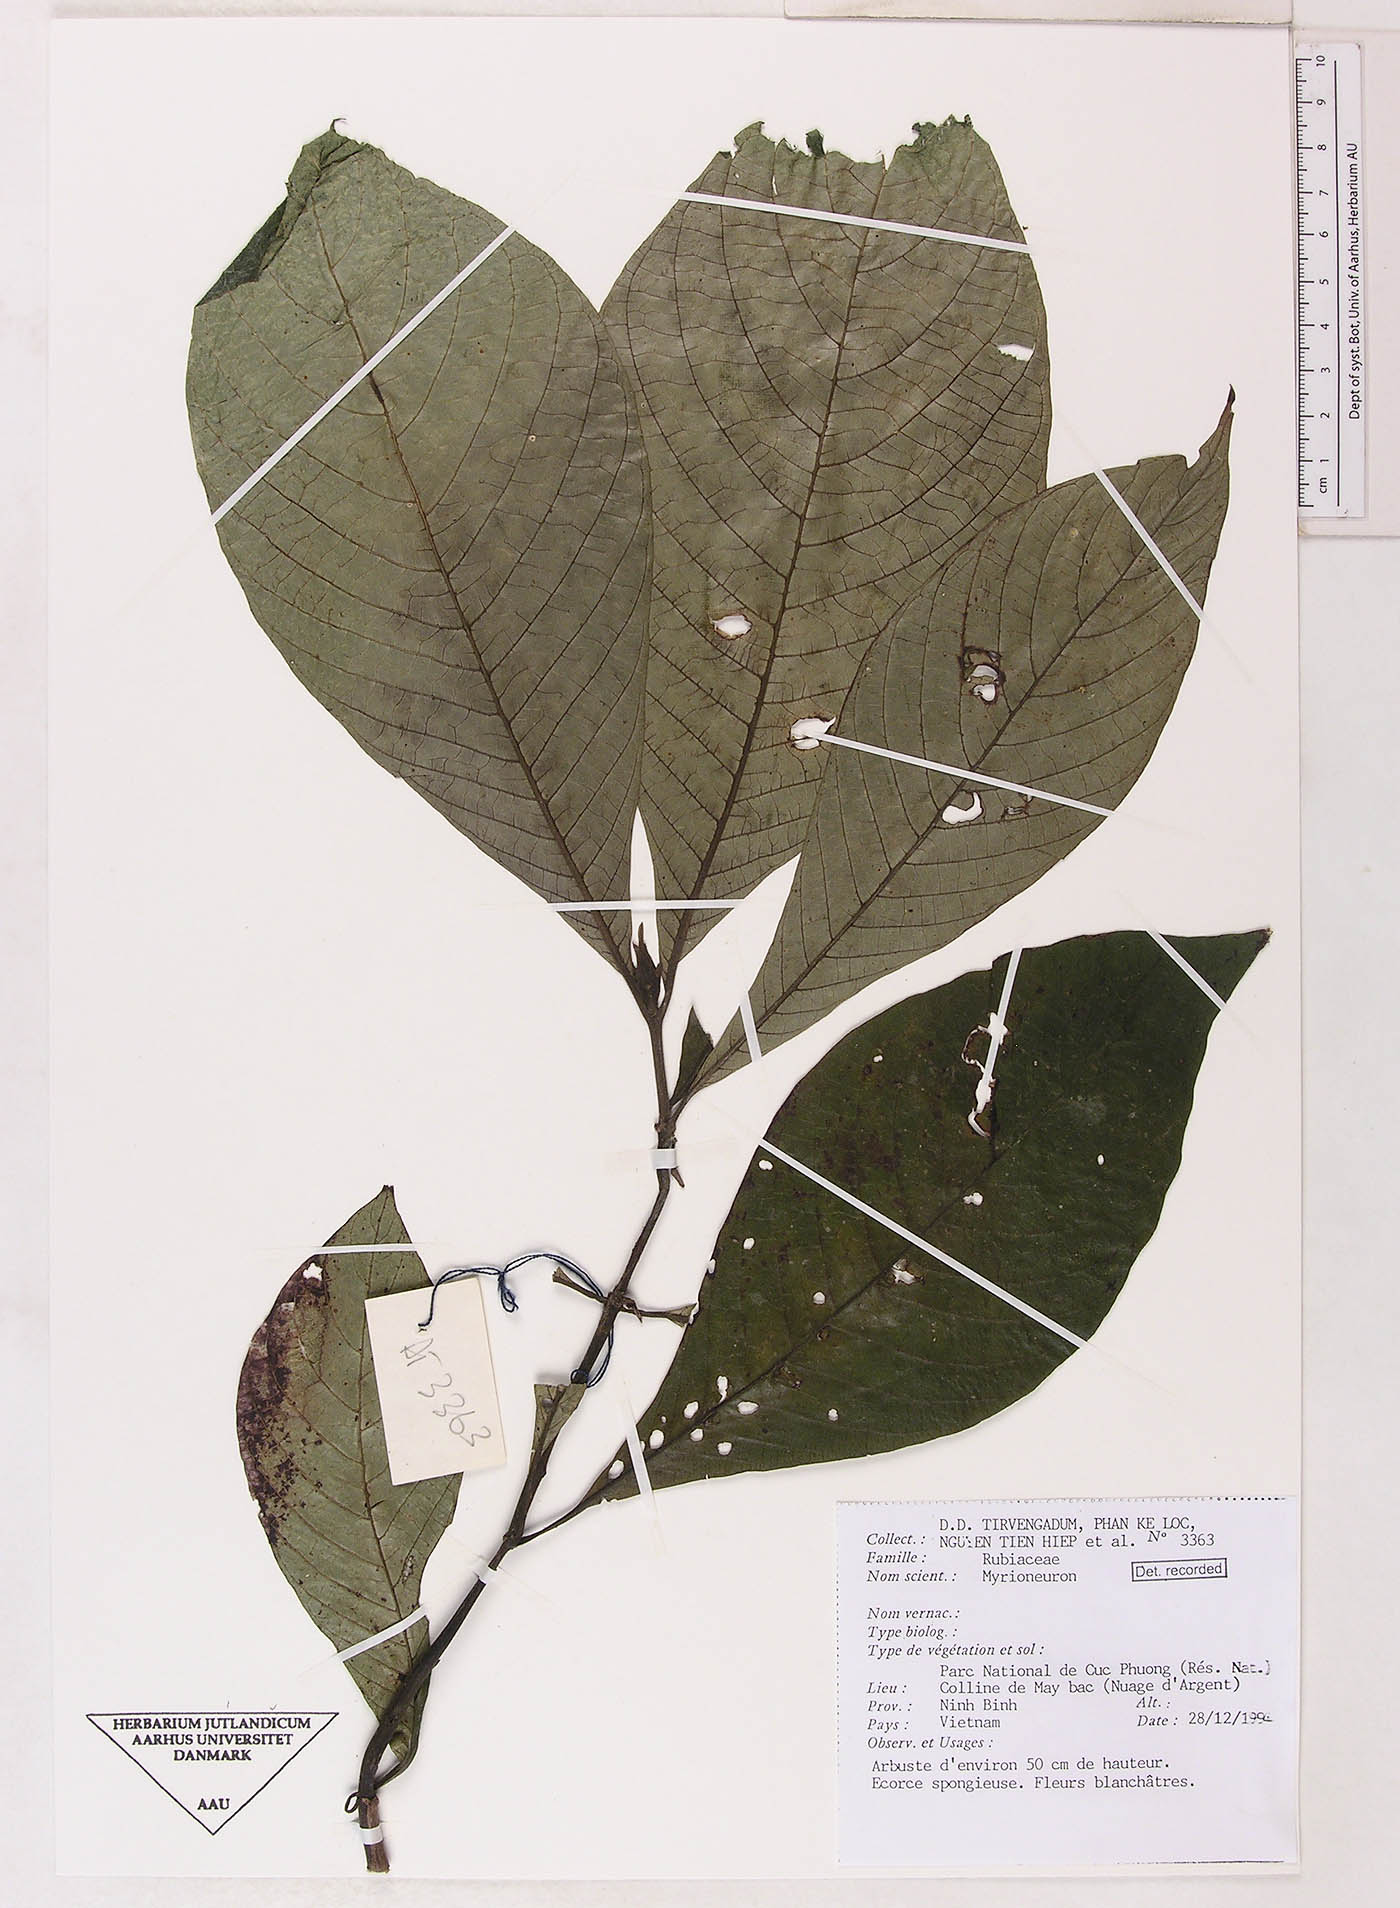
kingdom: Plantae
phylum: Tracheophyta
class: Magnoliopsida
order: Gentianales
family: Rubiaceae
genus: Mycetia
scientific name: Mycetia
